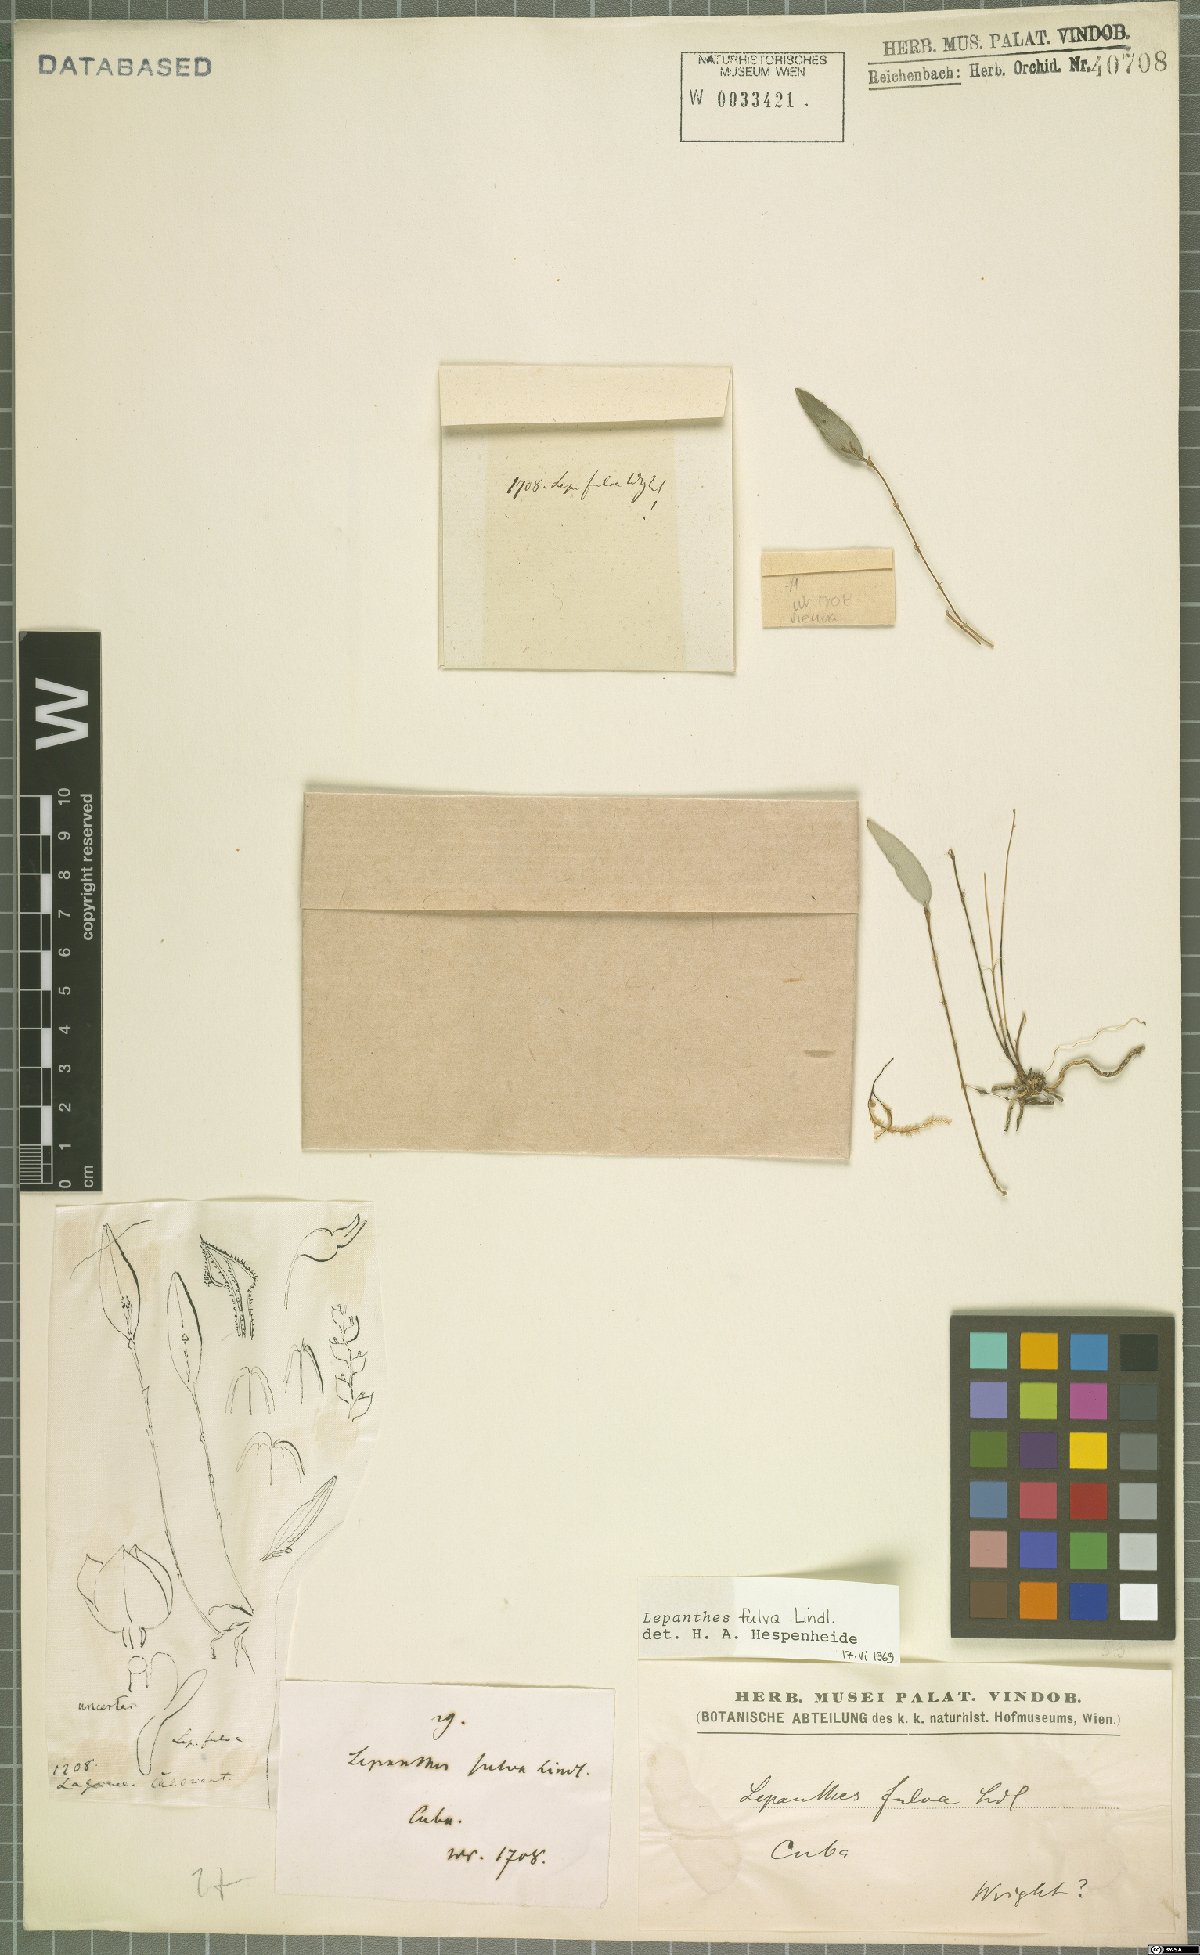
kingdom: Plantae
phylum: Tracheophyta
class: Liliopsida
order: Asparagales
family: Orchidaceae
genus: Lepanthes
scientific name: Lepanthes fulva
